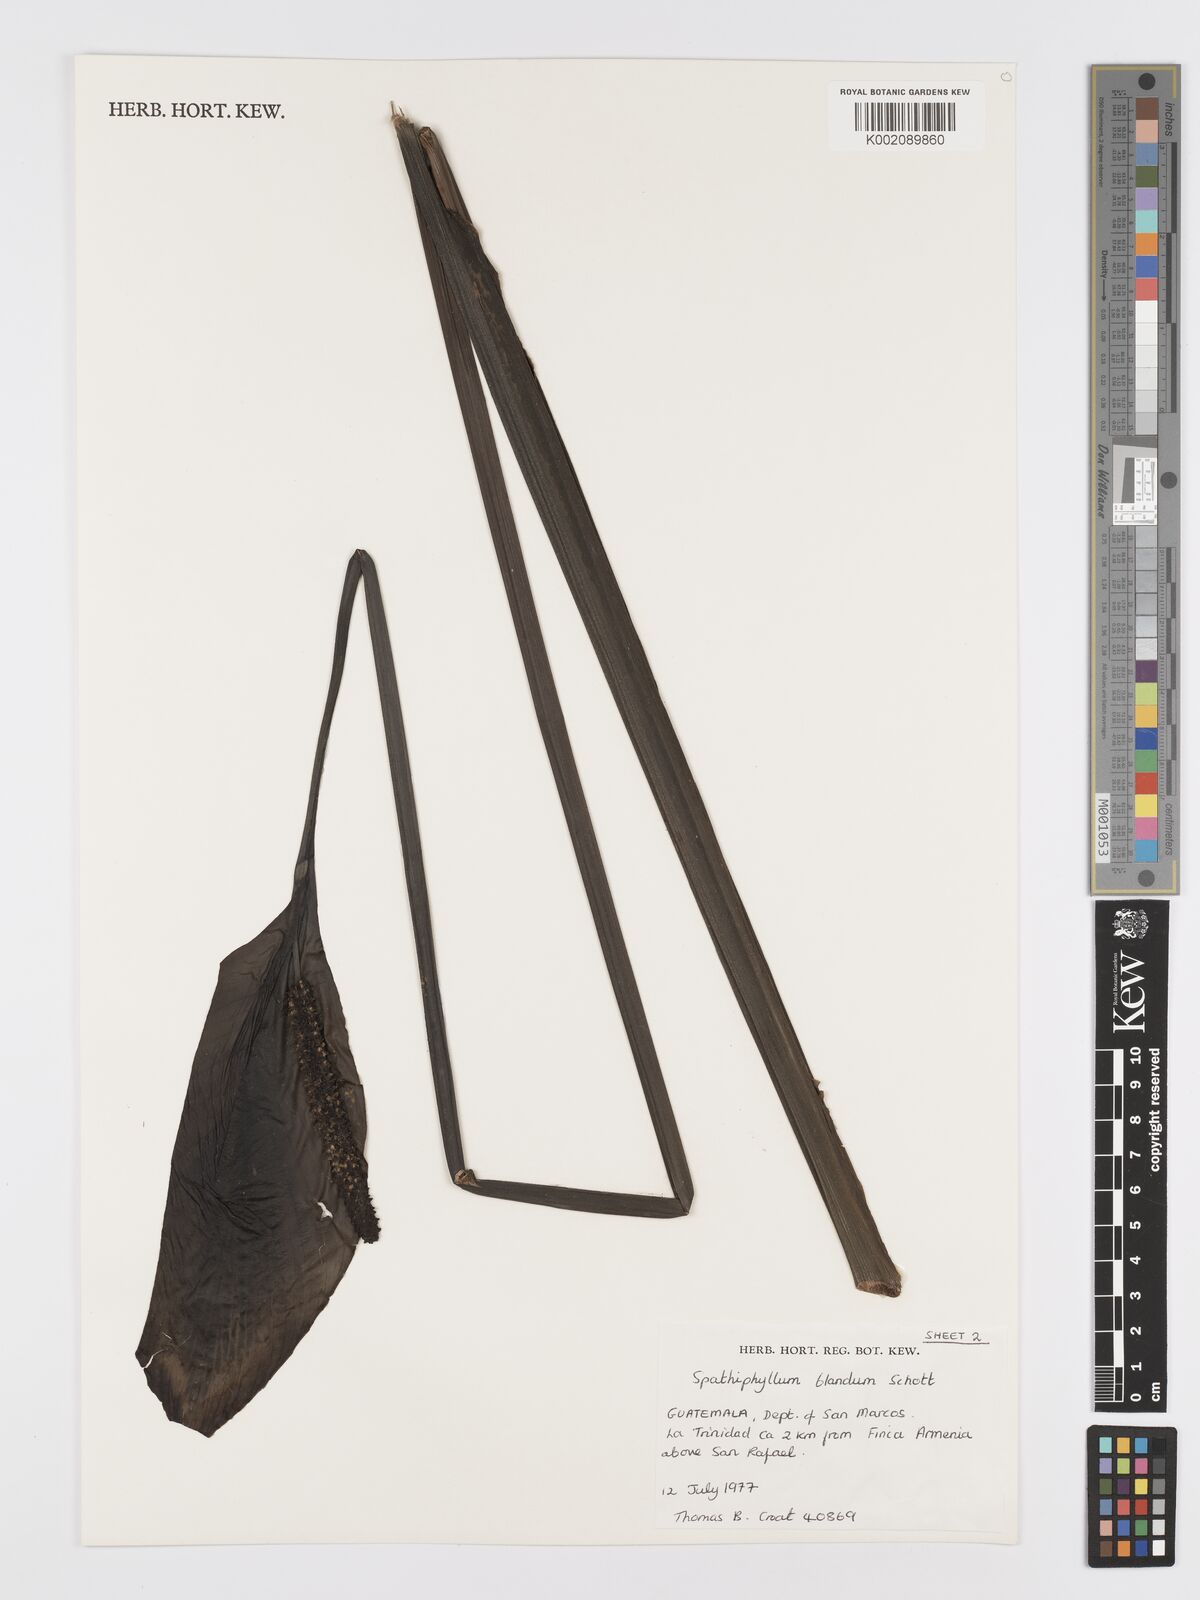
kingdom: Plantae
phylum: Tracheophyta
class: Liliopsida
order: Alismatales
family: Araceae
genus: Spathiphyllum
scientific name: Spathiphyllum blandum
